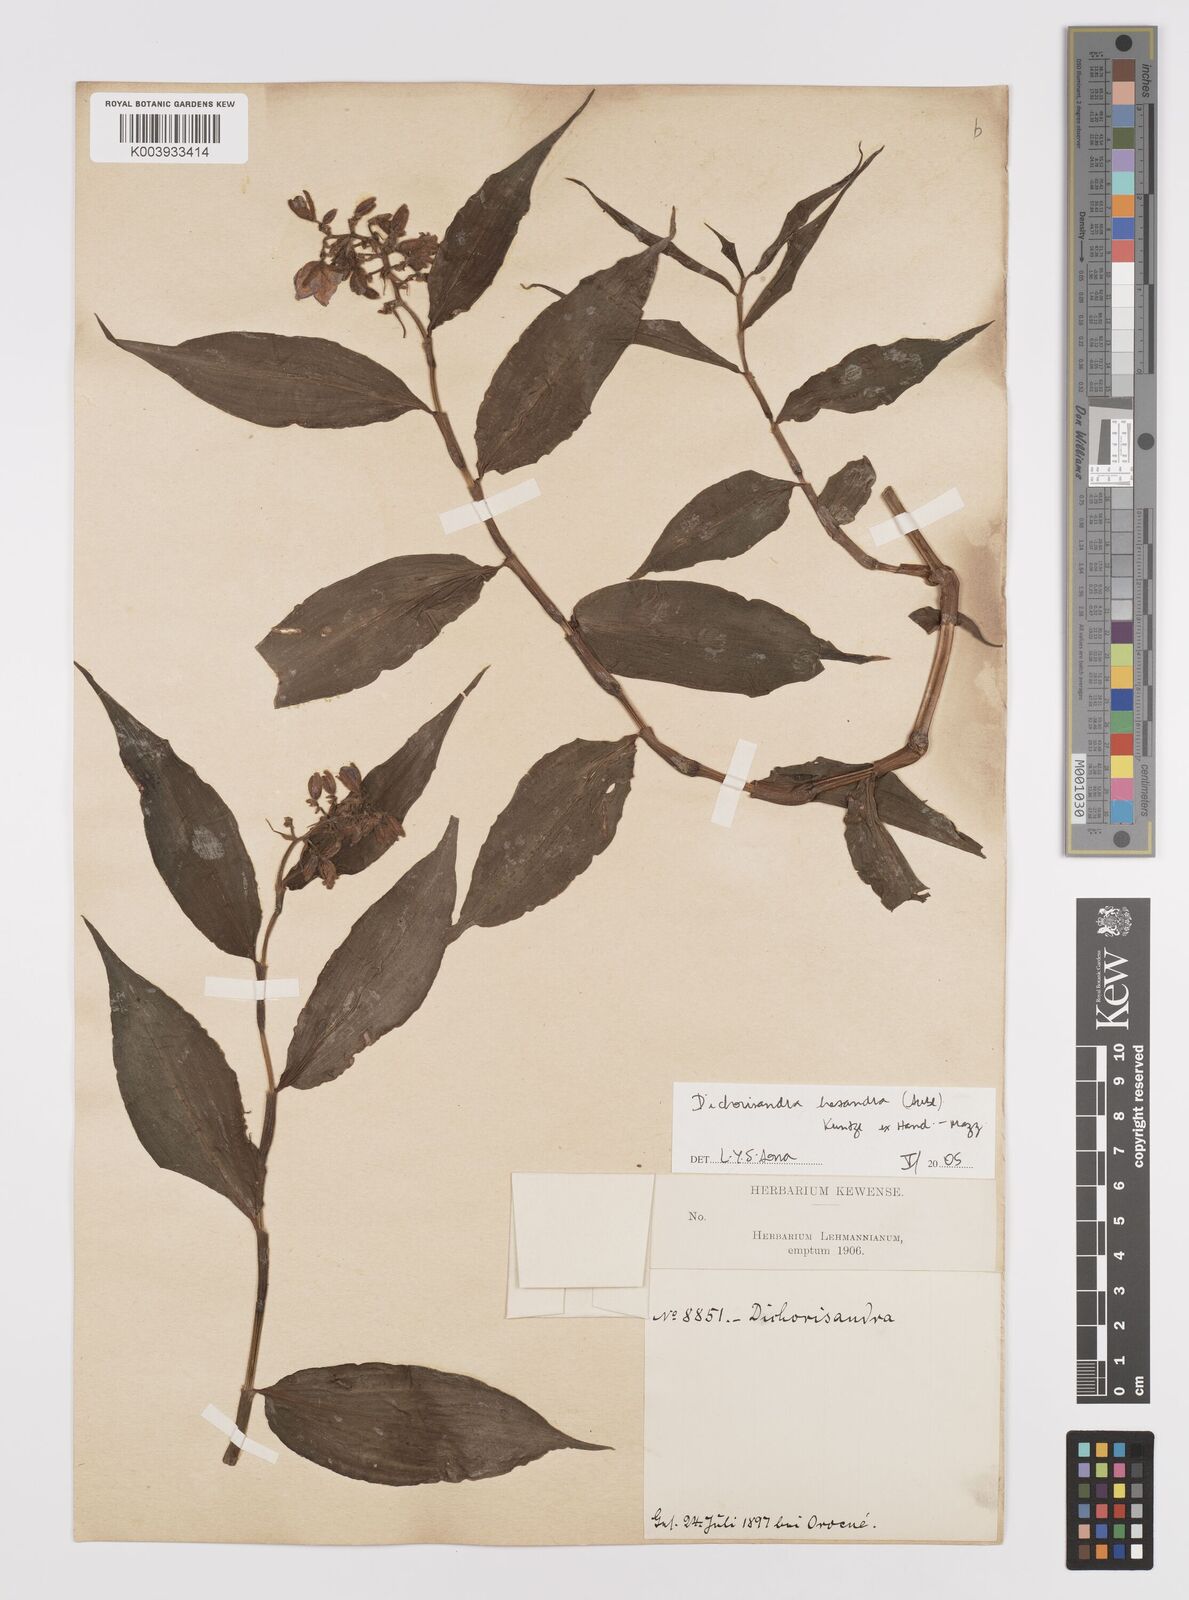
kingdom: Plantae
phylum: Tracheophyta
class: Liliopsida
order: Commelinales
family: Commelinaceae
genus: Dichorisandra
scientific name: Dichorisandra hexandra
